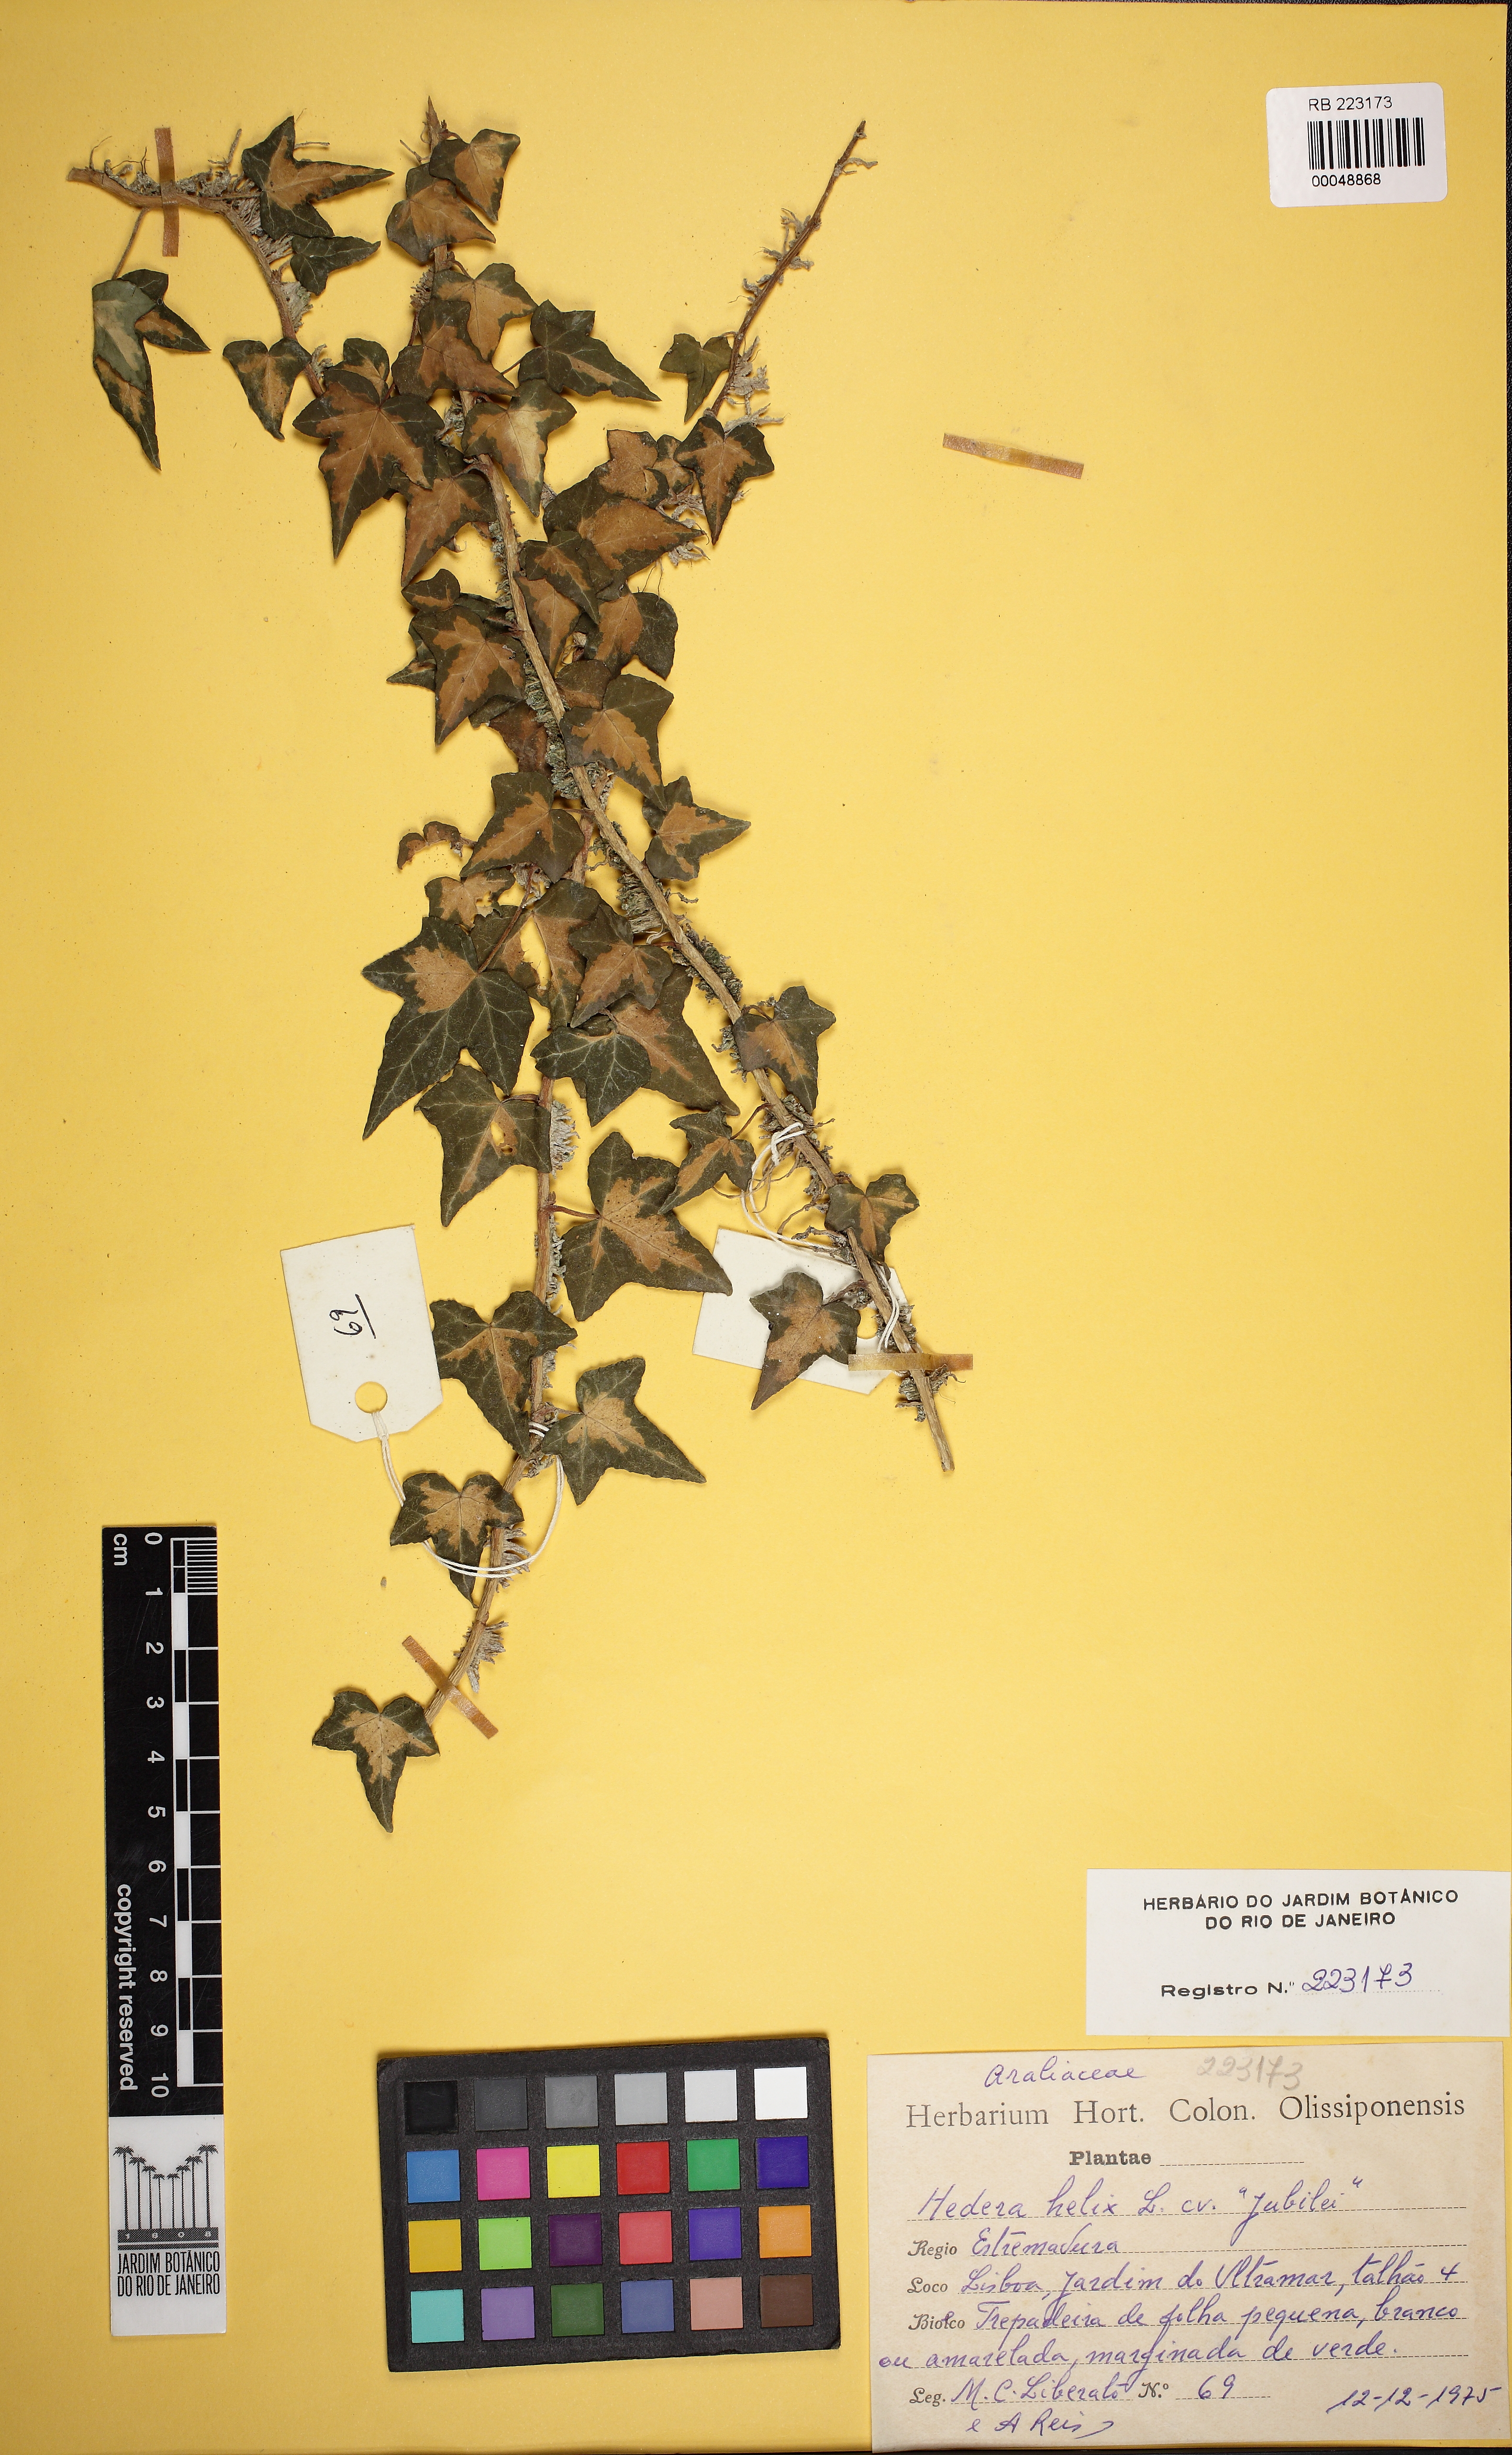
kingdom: Plantae
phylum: Tracheophyta
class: Magnoliopsida
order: Apiales
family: Araliaceae
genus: Hedera
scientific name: Hedera helix
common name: Ivy
